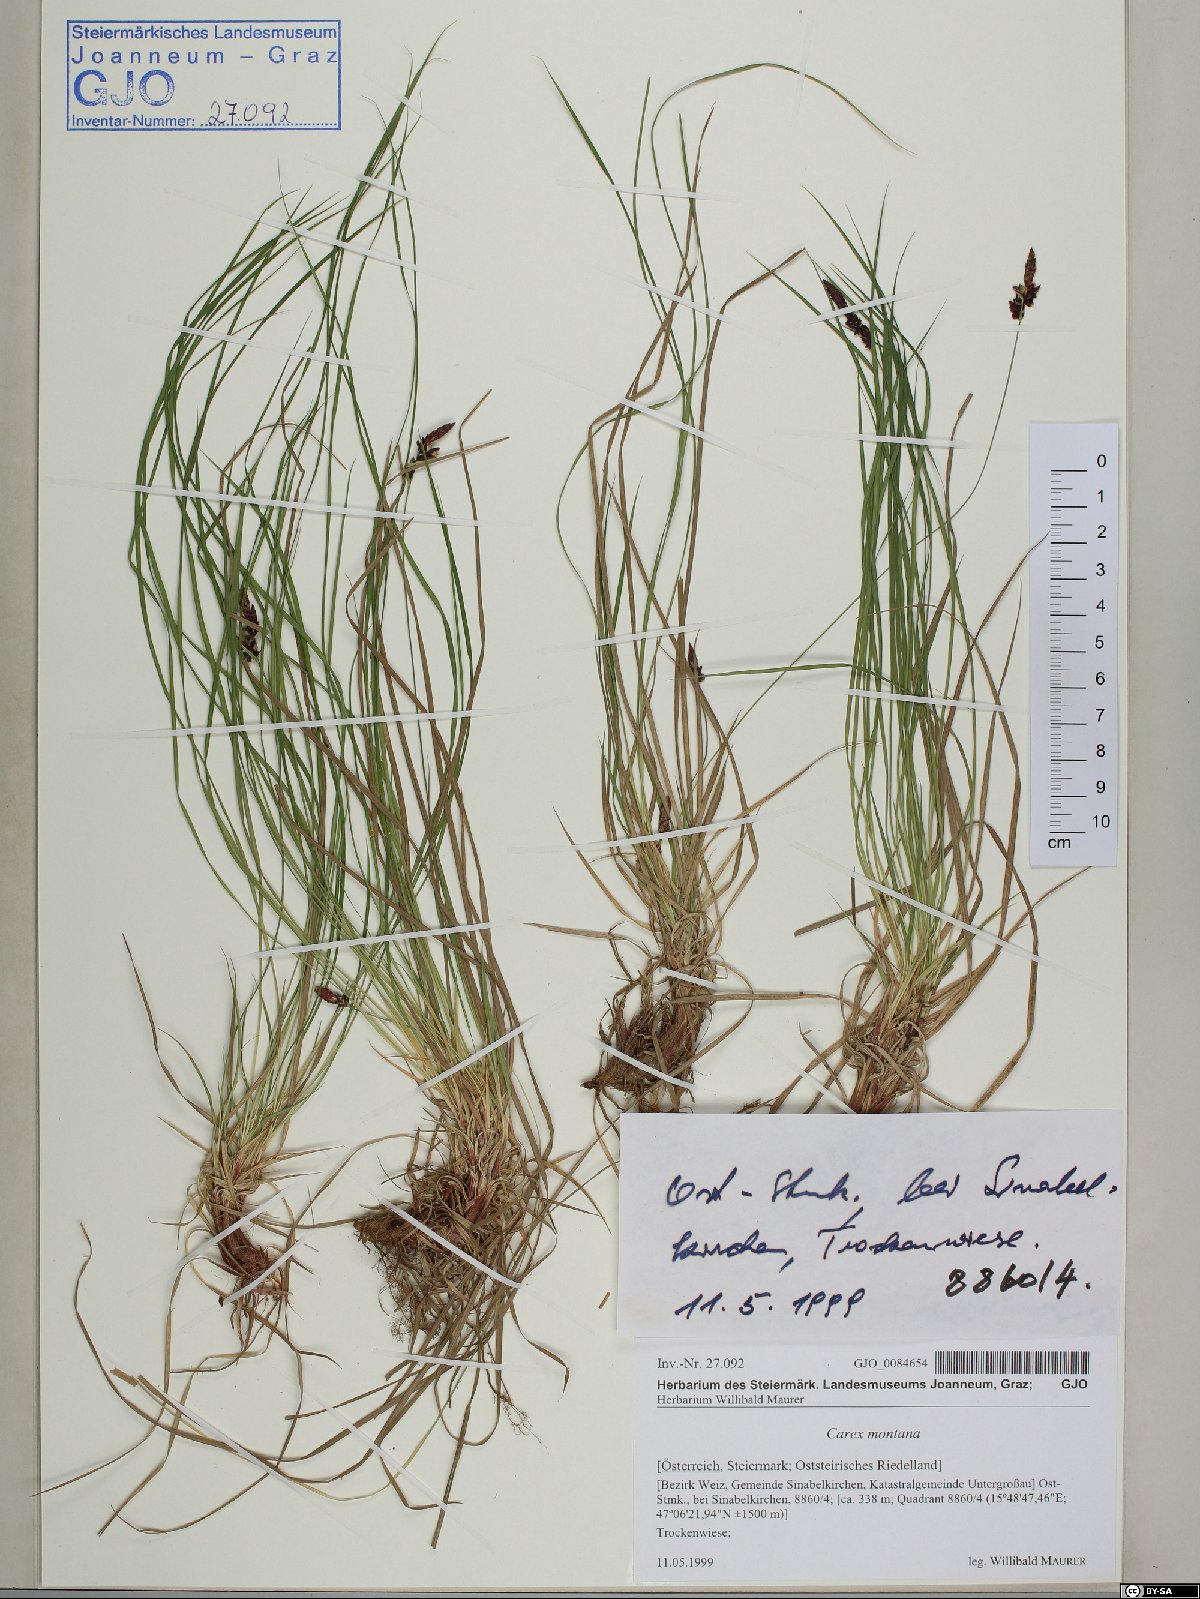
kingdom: Plantae
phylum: Tracheophyta
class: Liliopsida
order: Poales
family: Cyperaceae
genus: Carex
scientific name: Carex montana
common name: Soft-leaved sedge
